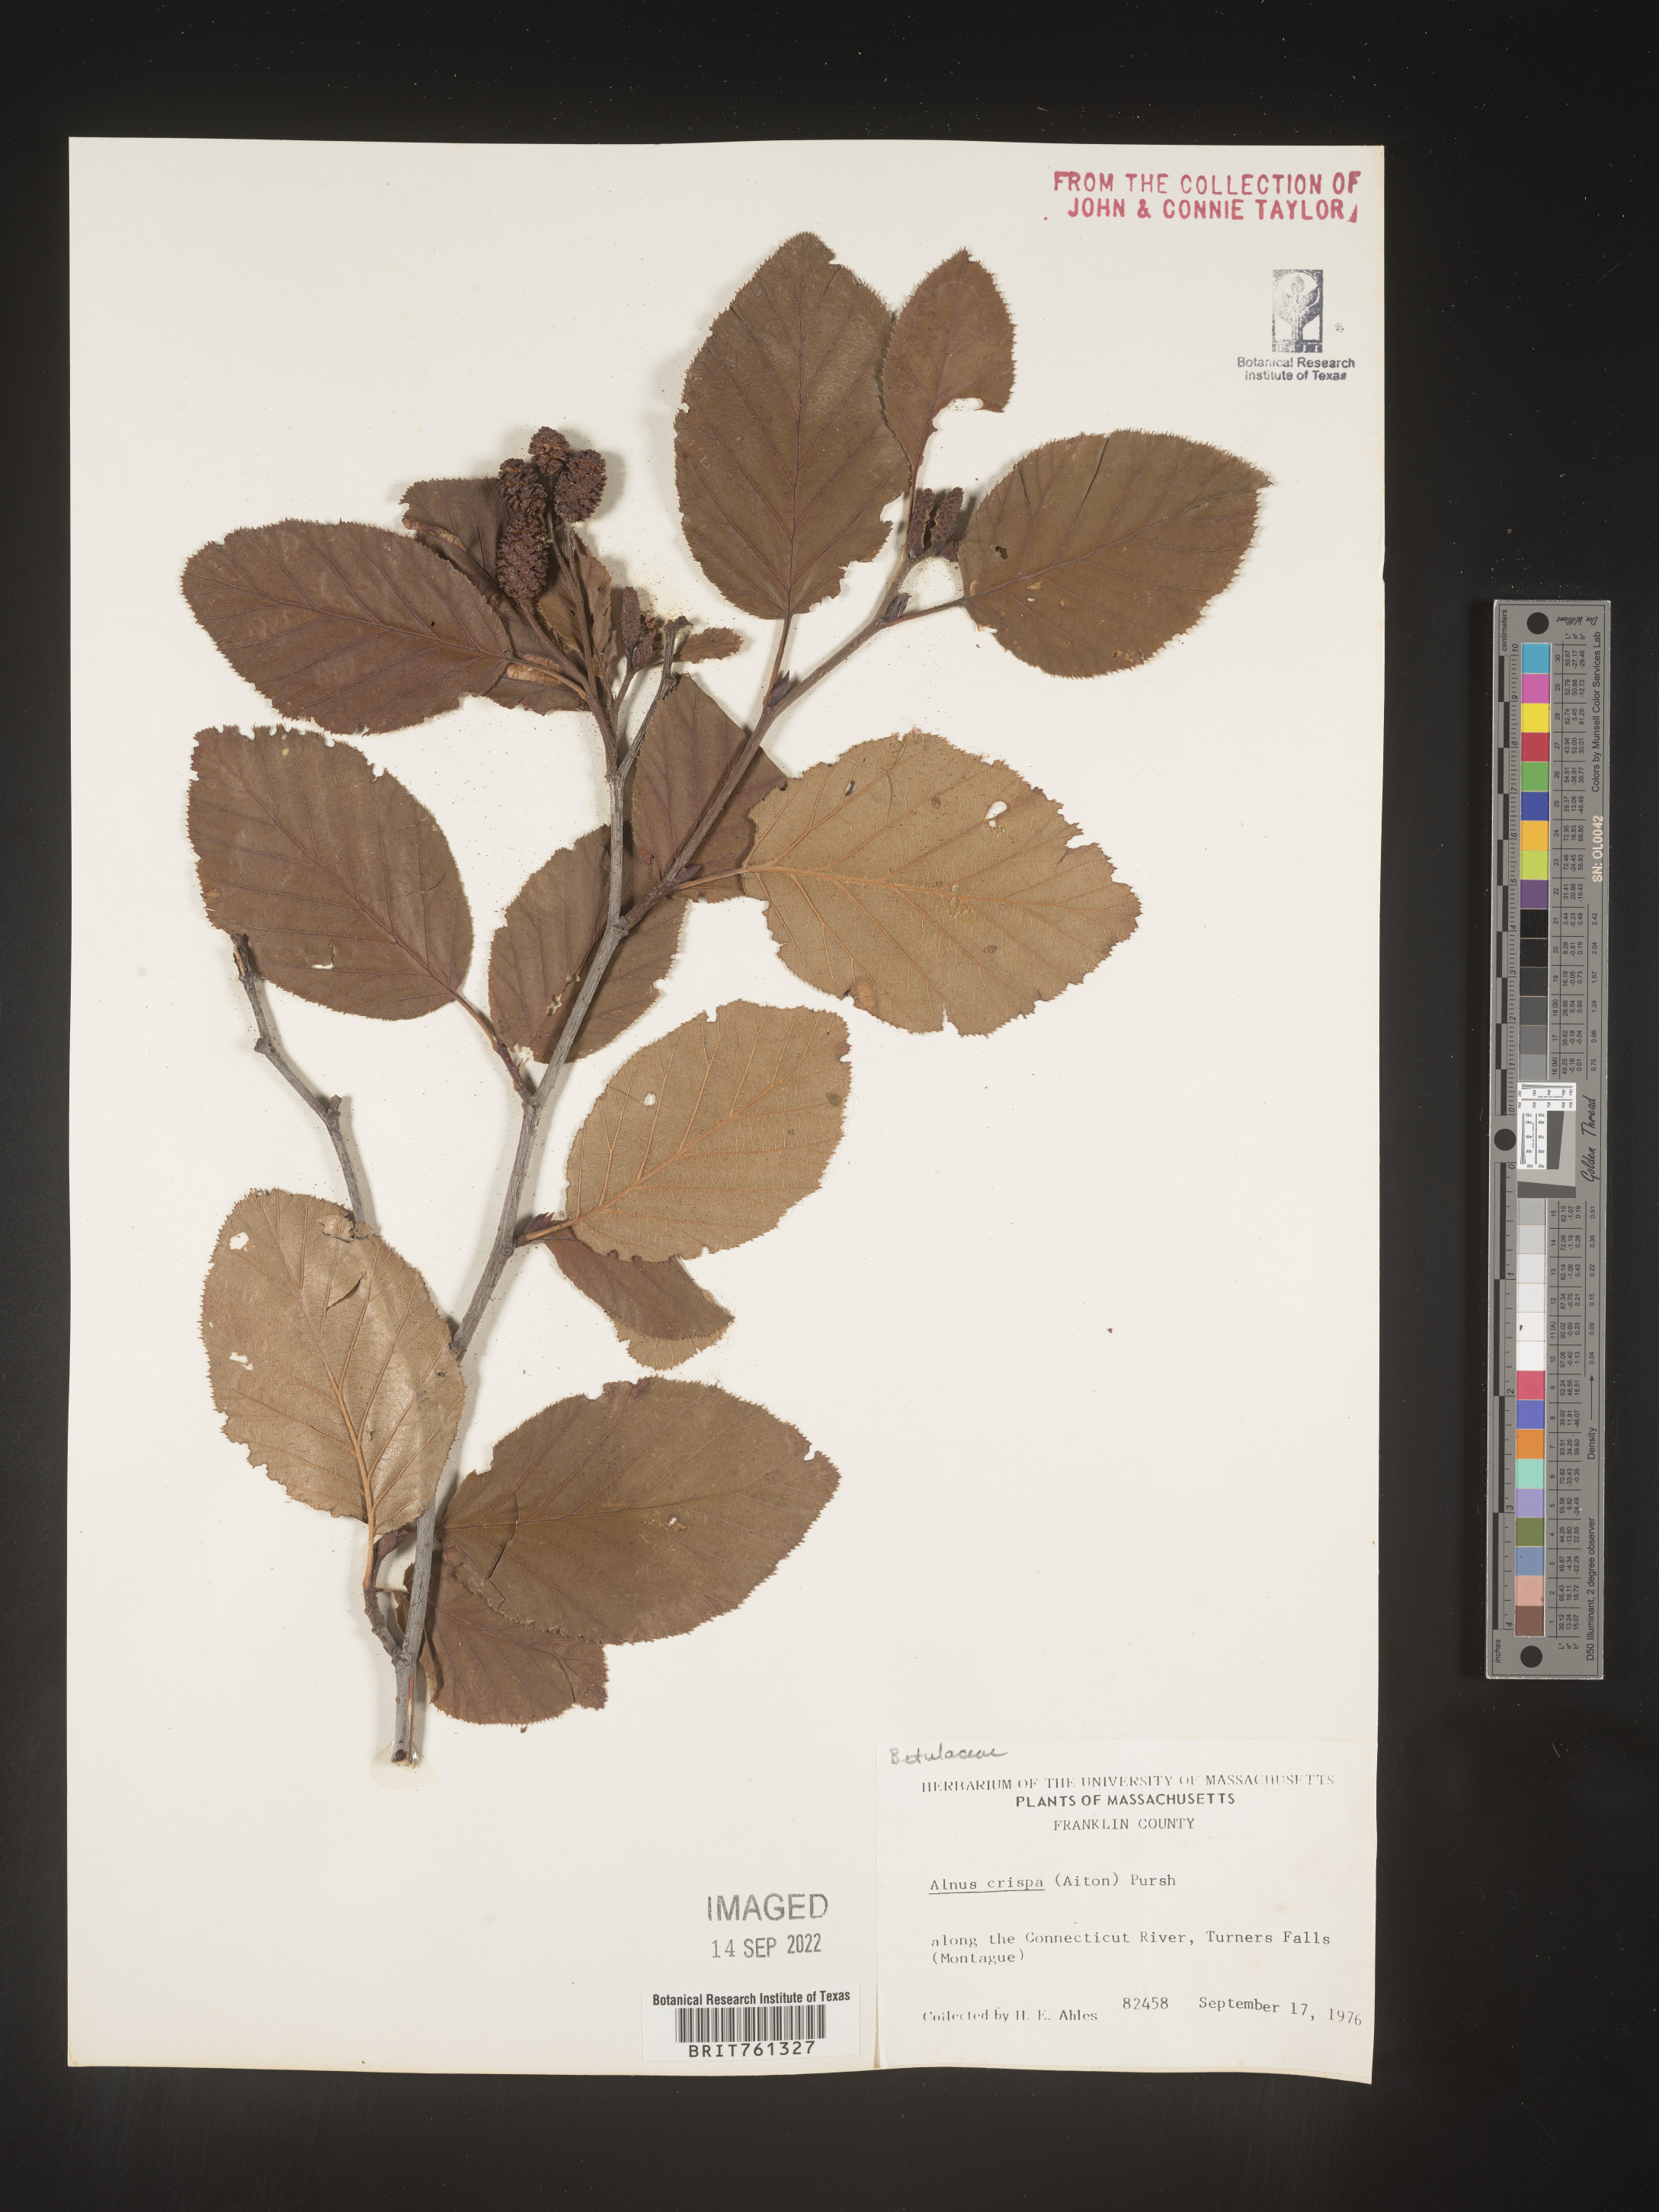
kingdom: Plantae
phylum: Tracheophyta
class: Magnoliopsida
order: Fagales
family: Betulaceae
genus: Alnus
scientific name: Alnus
